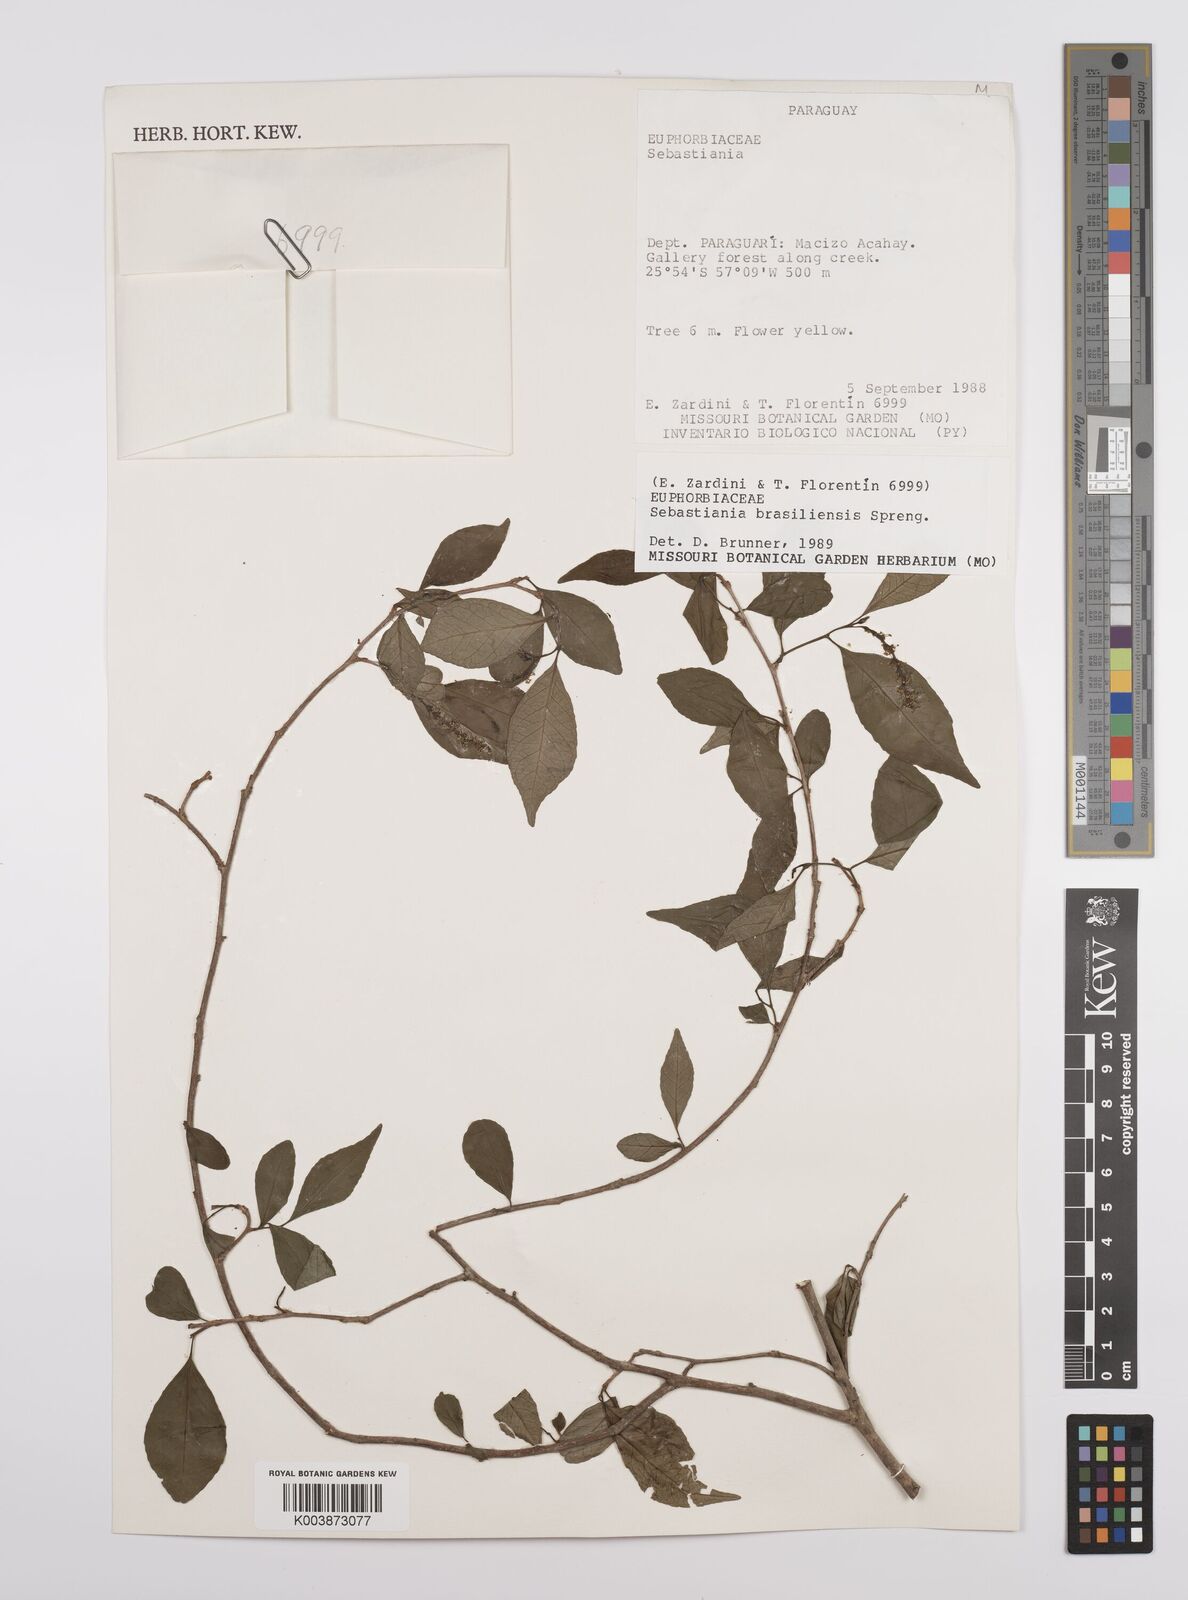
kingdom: Plantae
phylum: Tracheophyta
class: Magnoliopsida
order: Malpighiales
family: Euphorbiaceae
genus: Sebastiania
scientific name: Sebastiania brasiliensis
